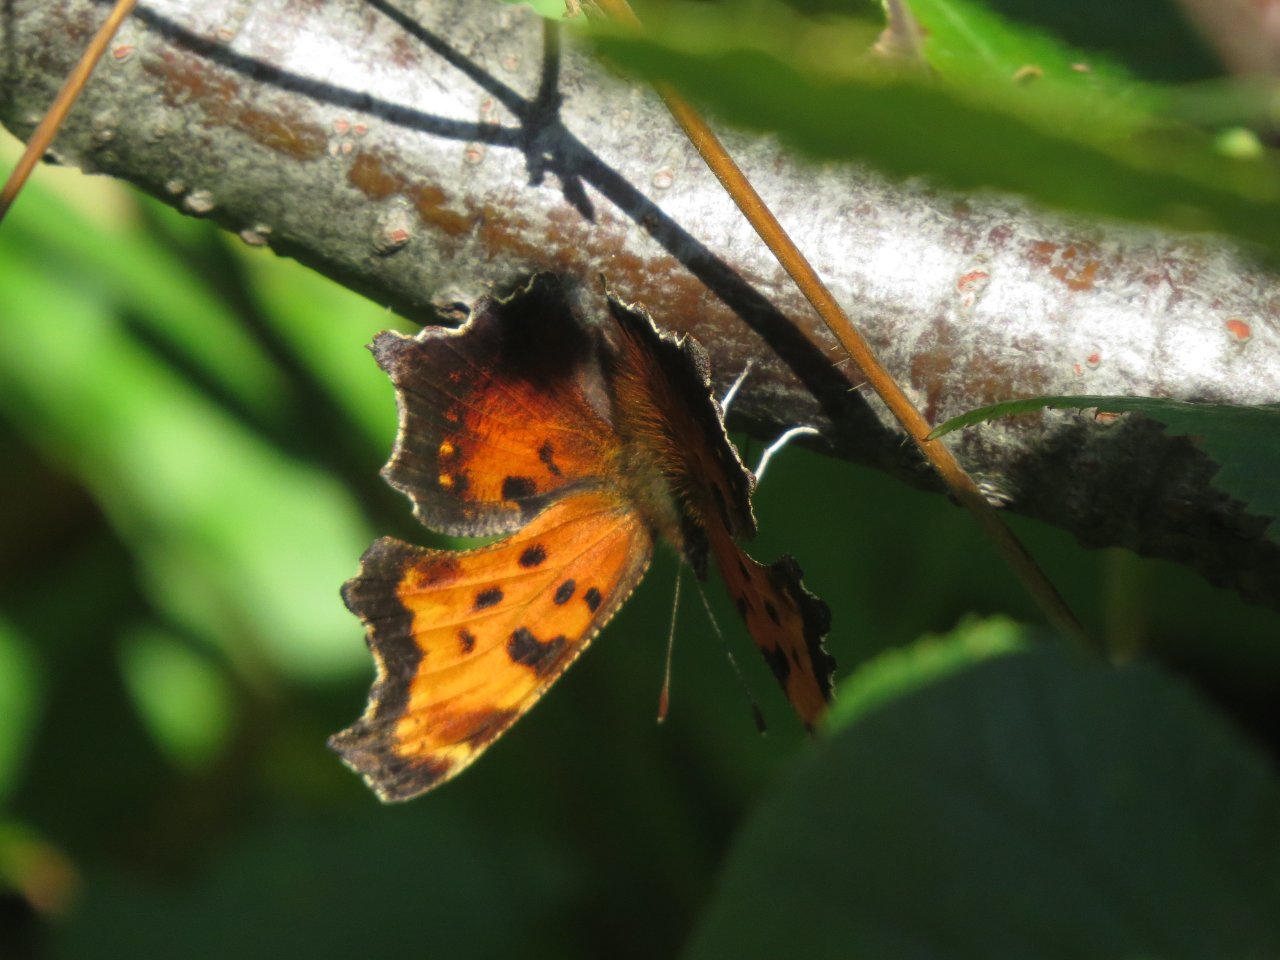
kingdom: Animalia
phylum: Arthropoda
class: Insecta
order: Lepidoptera
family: Nymphalidae
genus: Polygonia
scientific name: Polygonia progne
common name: Gray Comma
